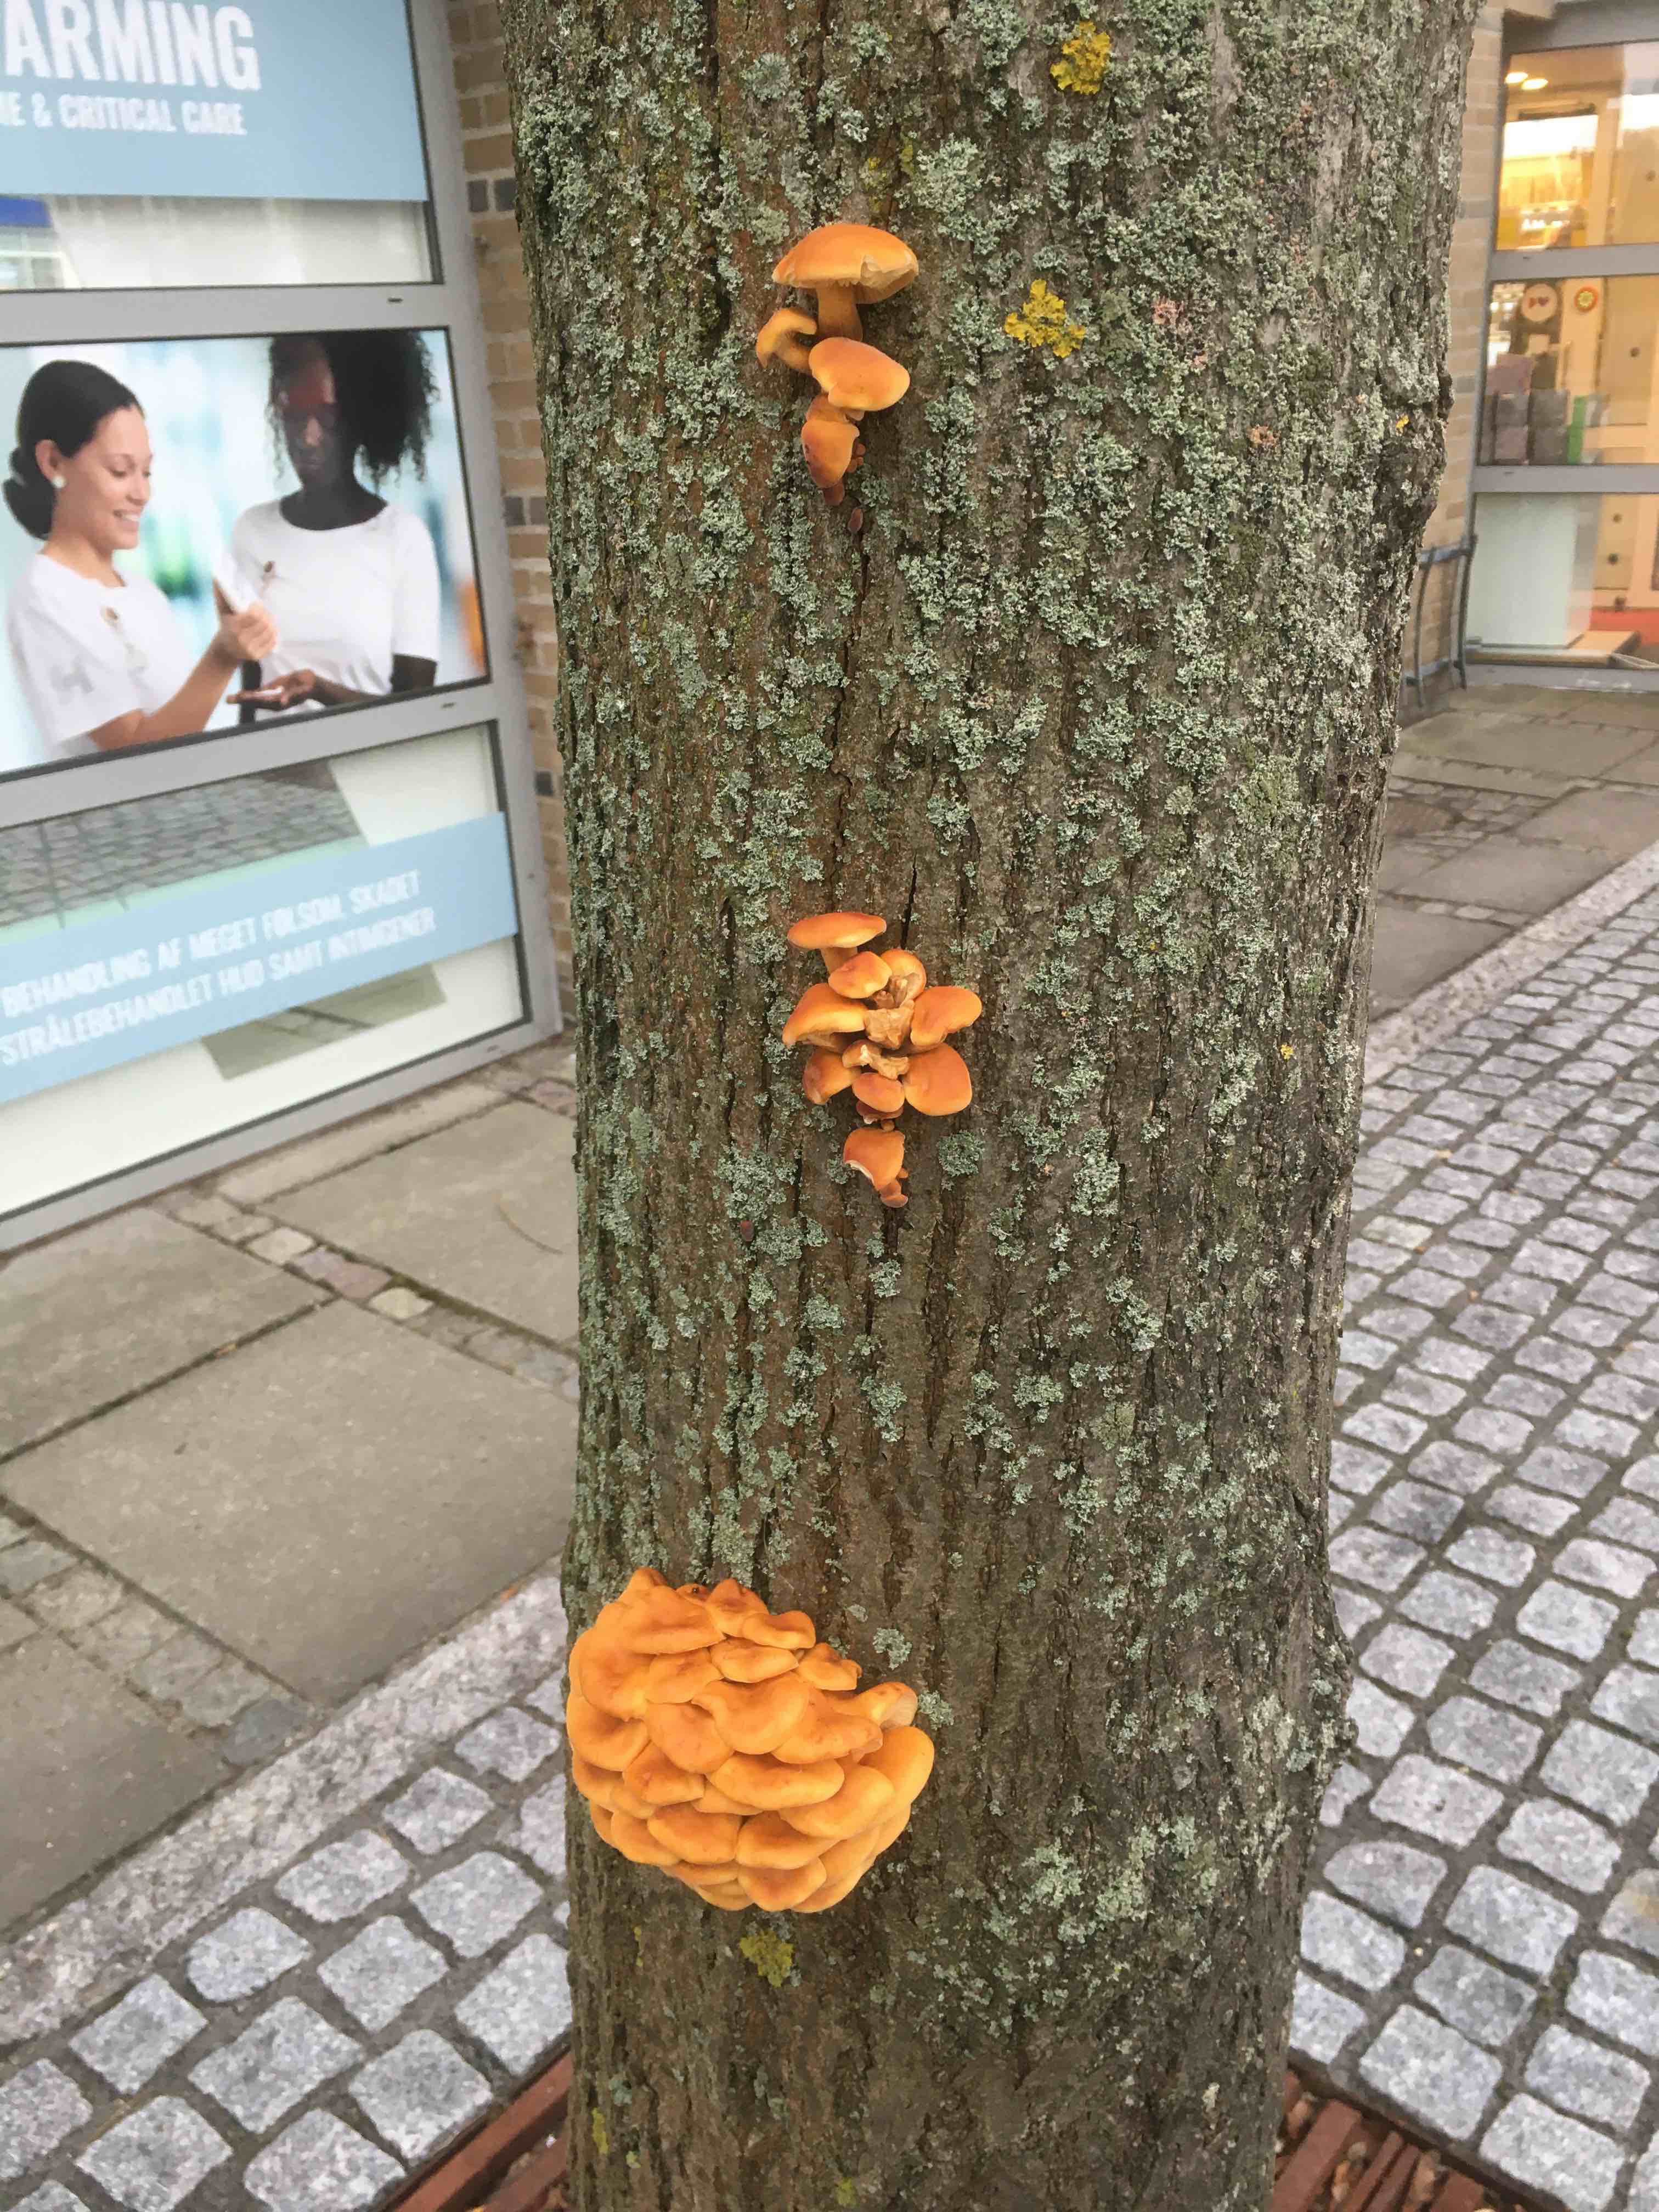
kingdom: Fungi
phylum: Basidiomycota
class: Agaricomycetes
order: Agaricales
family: Physalacriaceae
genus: Flammulina
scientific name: Flammulina velutipes
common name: gul fløjlsfod
